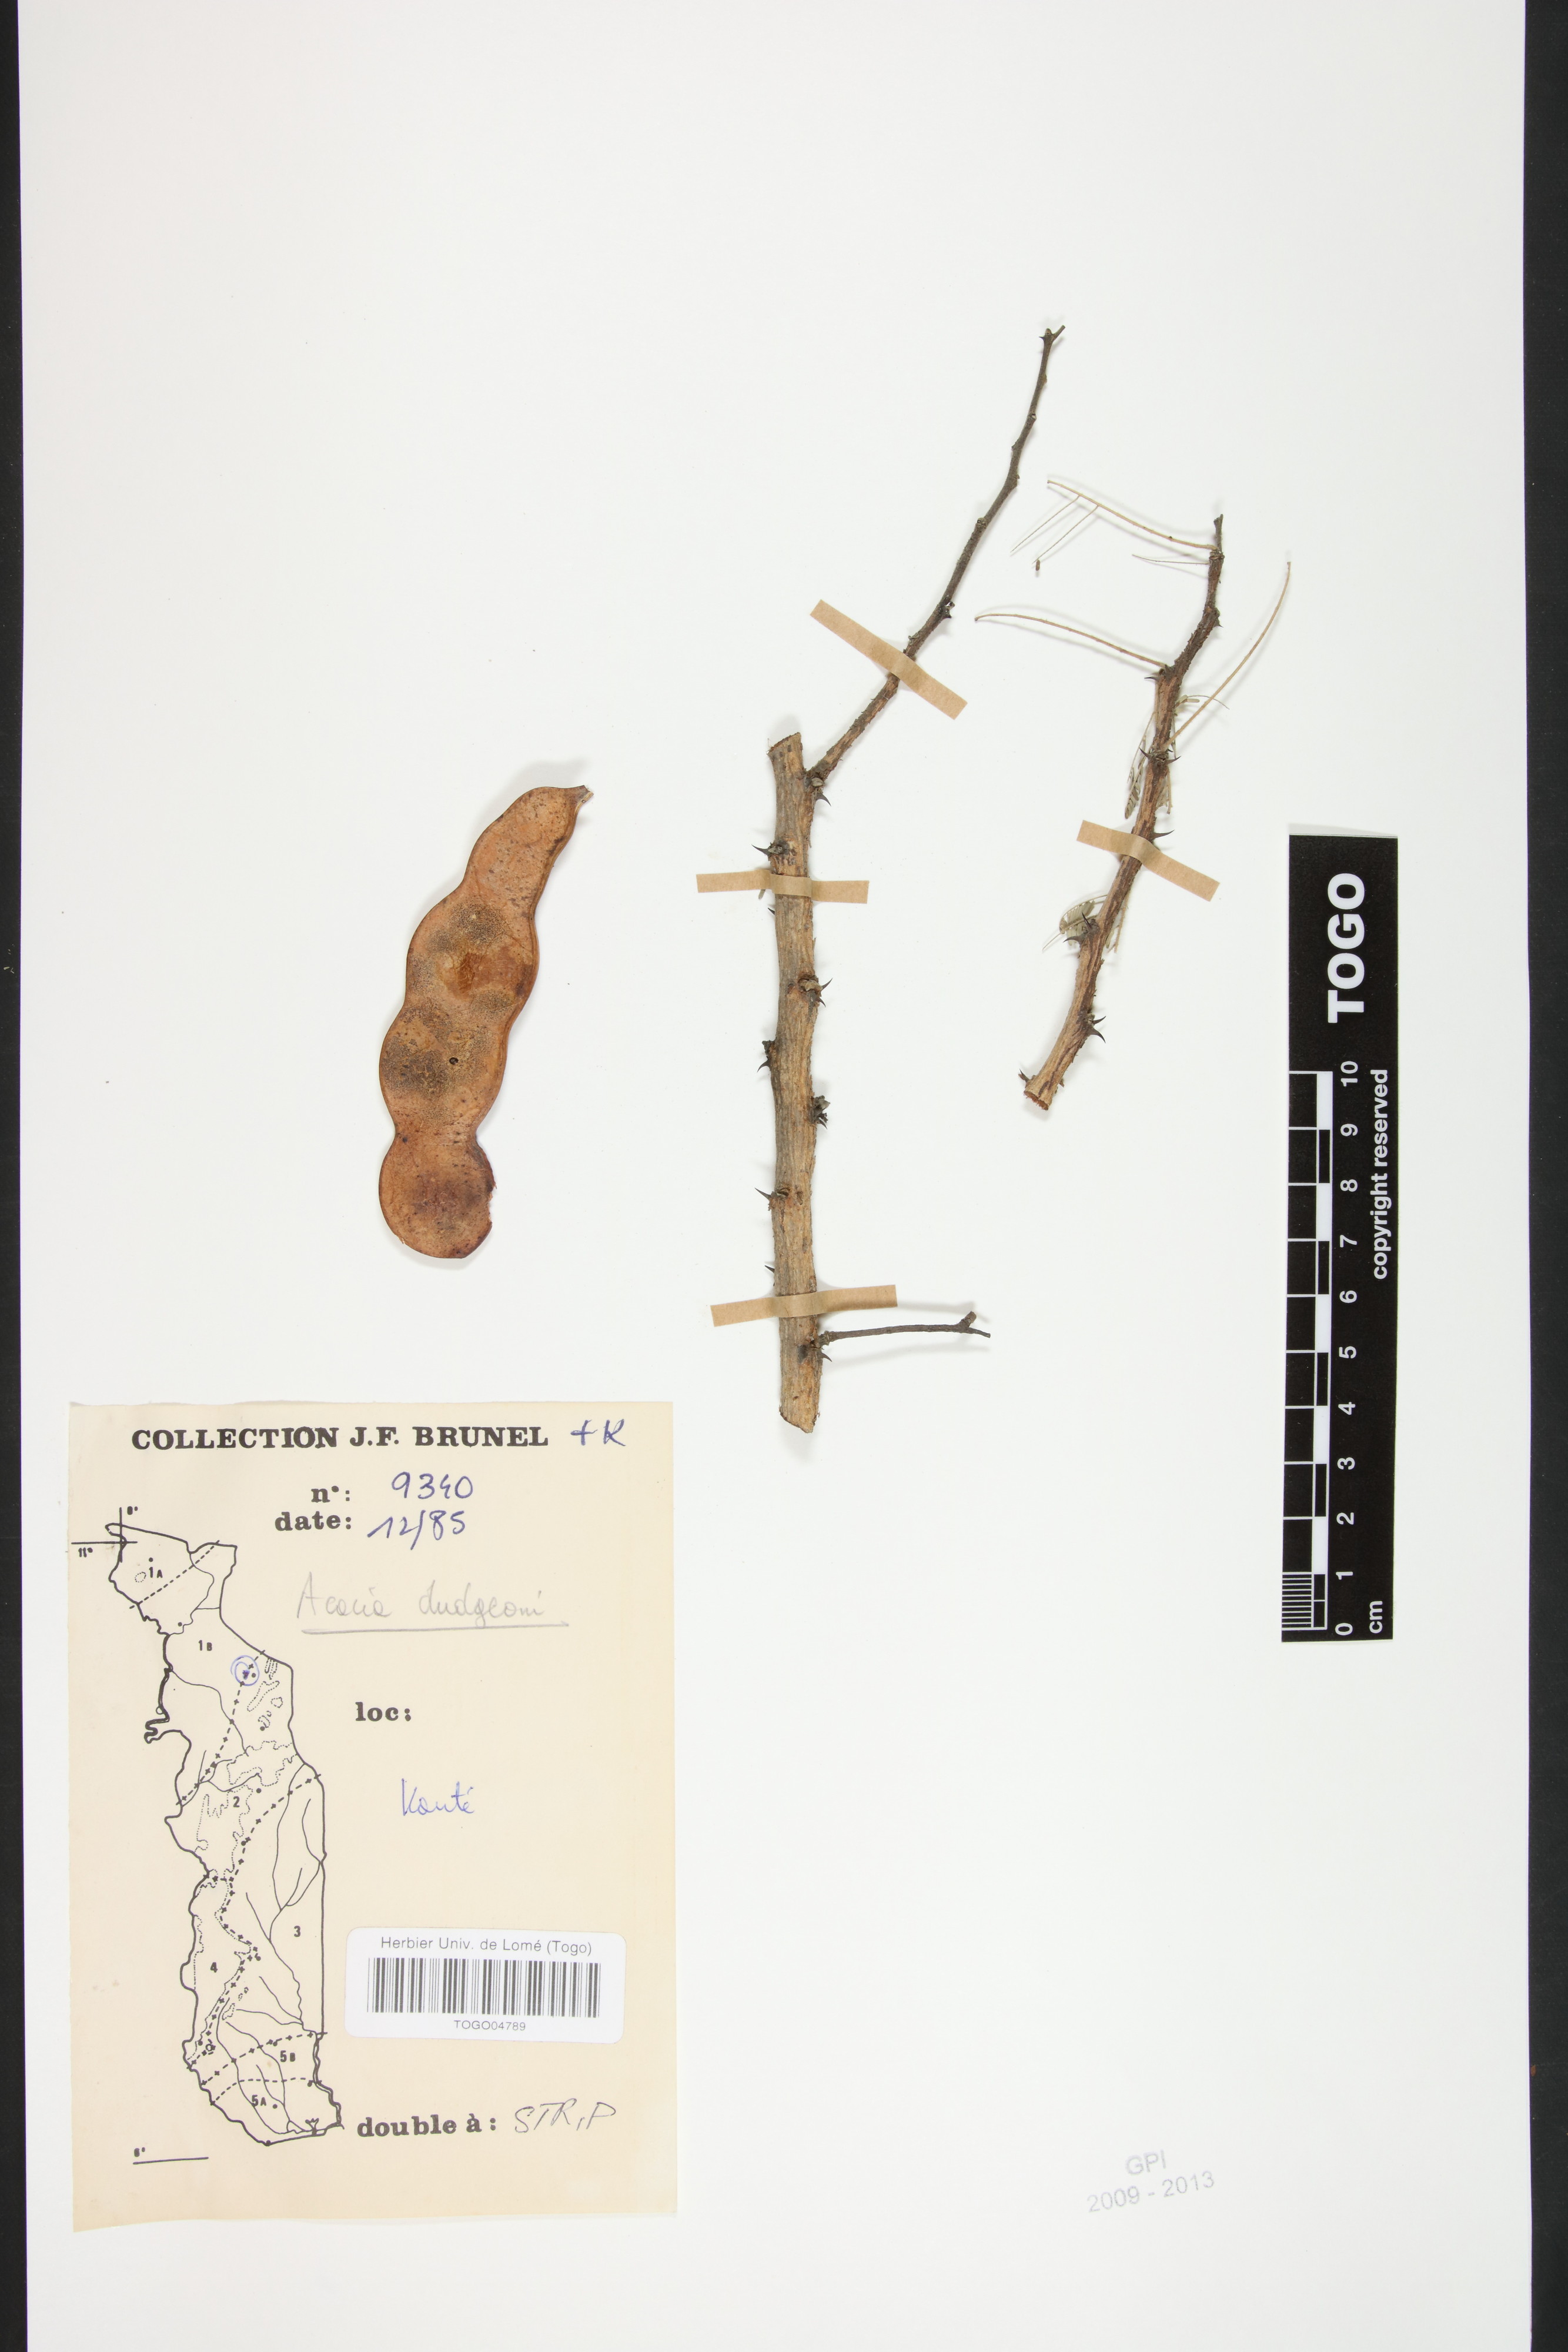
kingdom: Plantae
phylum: Tracheophyta
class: Magnoliopsida
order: Fabales
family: Fabaceae
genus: Senegalia
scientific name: Senegalia dudgeonii
